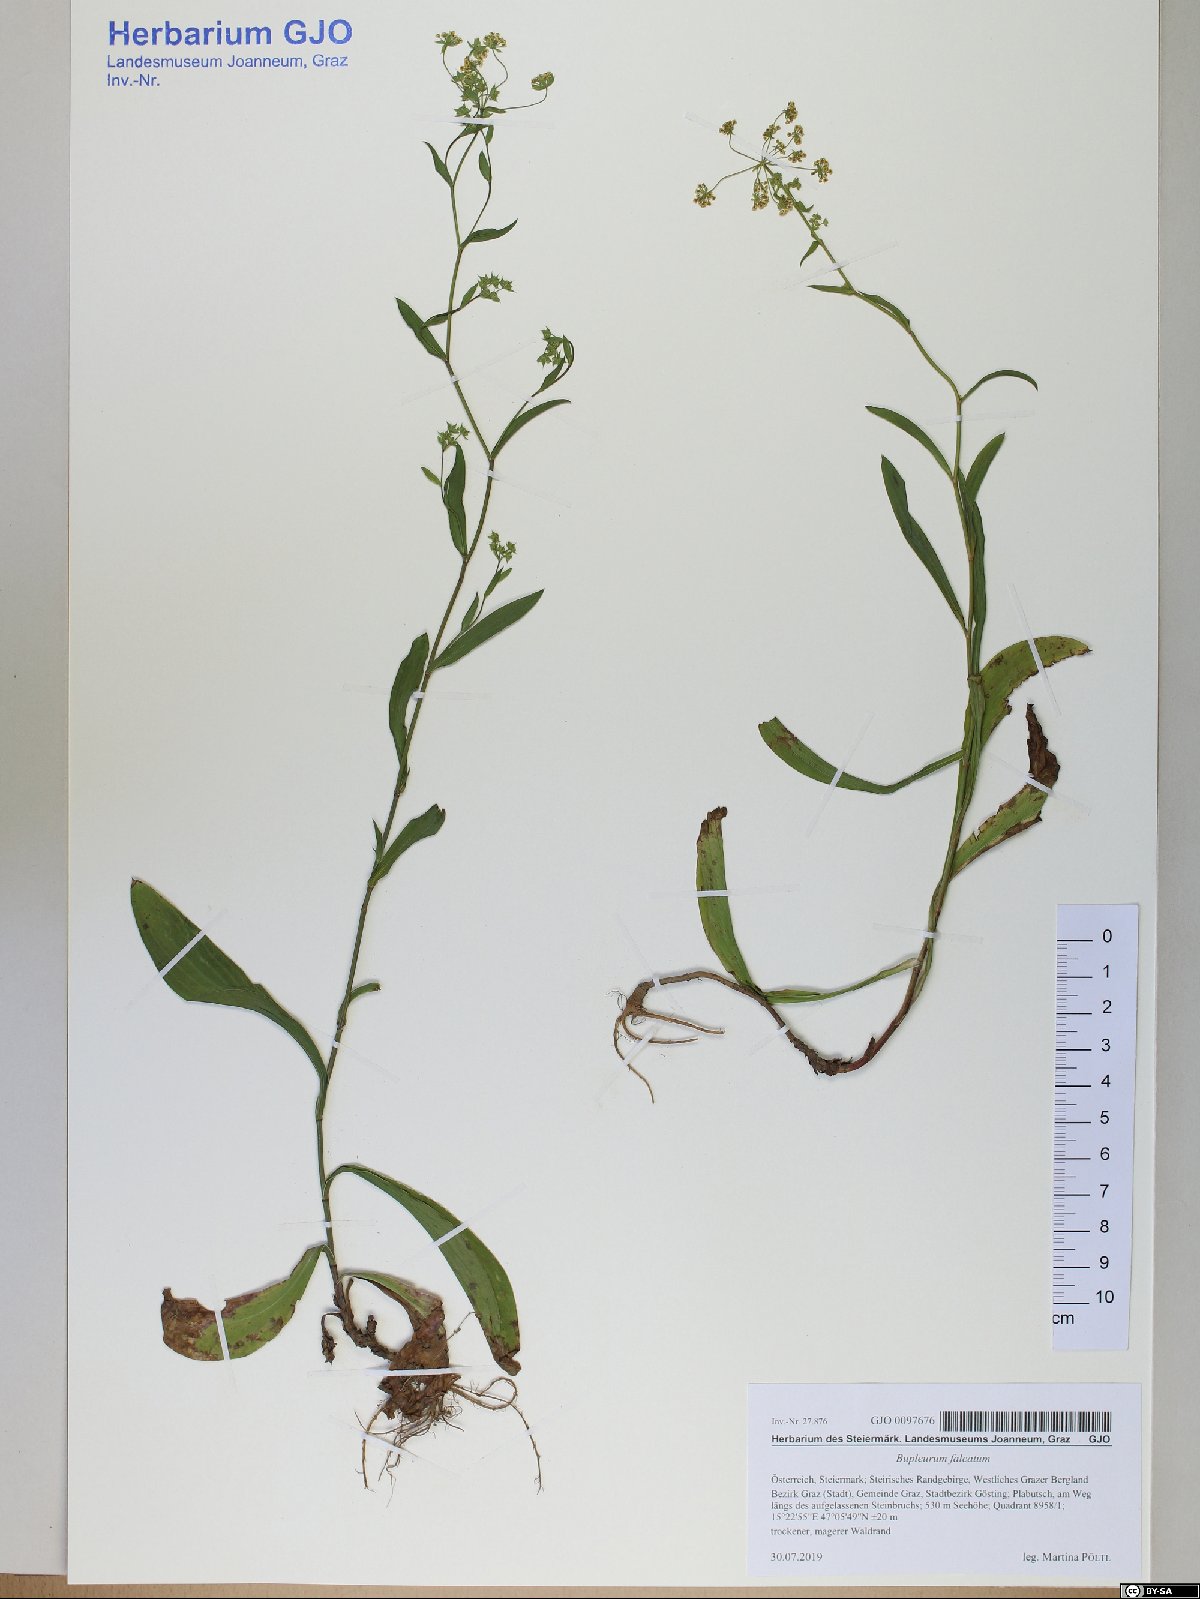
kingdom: Plantae
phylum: Tracheophyta
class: Magnoliopsida
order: Apiales
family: Apiaceae
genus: Bupleurum
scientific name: Bupleurum falcatum
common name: Sickle-leaved hare's-ear
